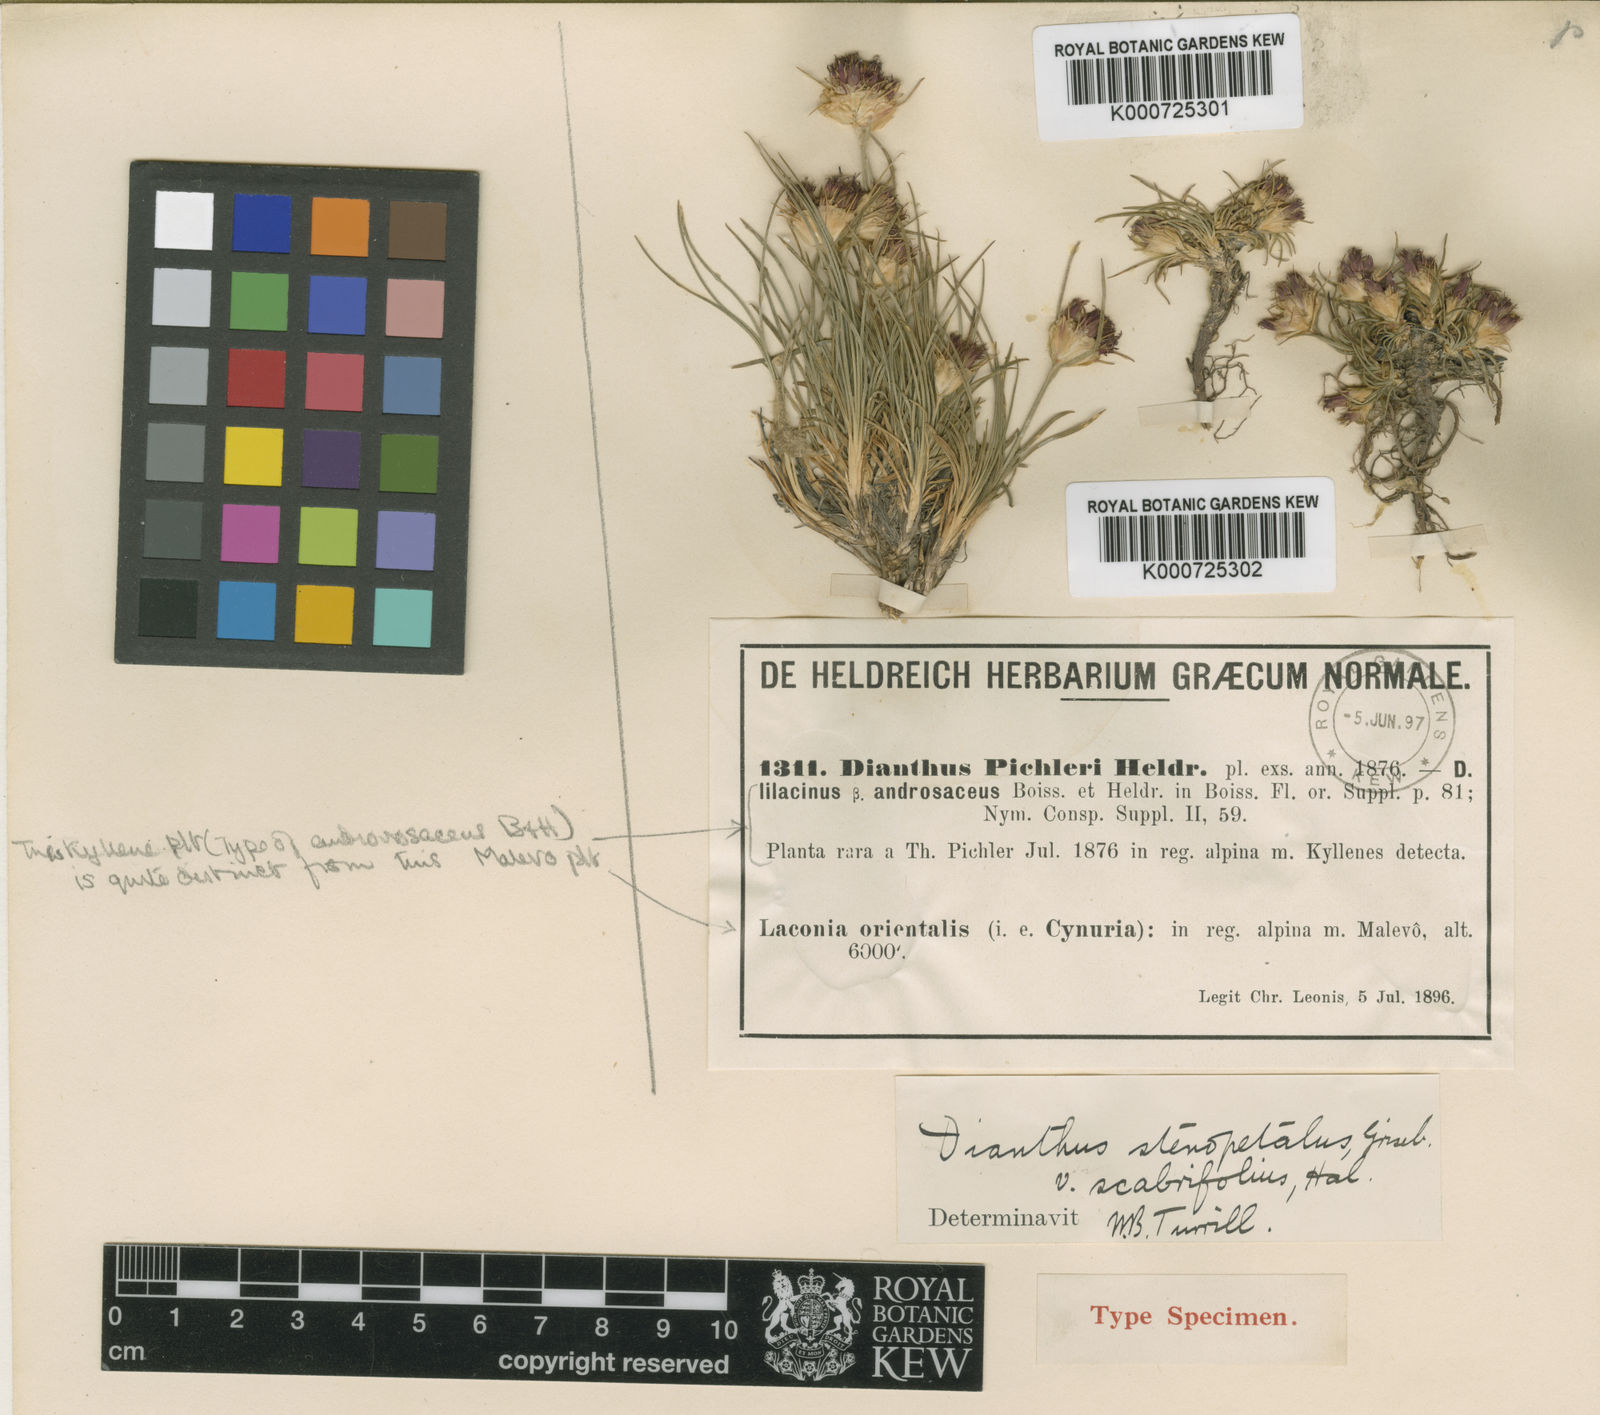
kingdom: Plantae
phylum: Tracheophyta
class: Magnoliopsida
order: Caryophyllales
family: Caryophyllaceae
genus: Dianthus
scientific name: Dianthus stenopetalus
